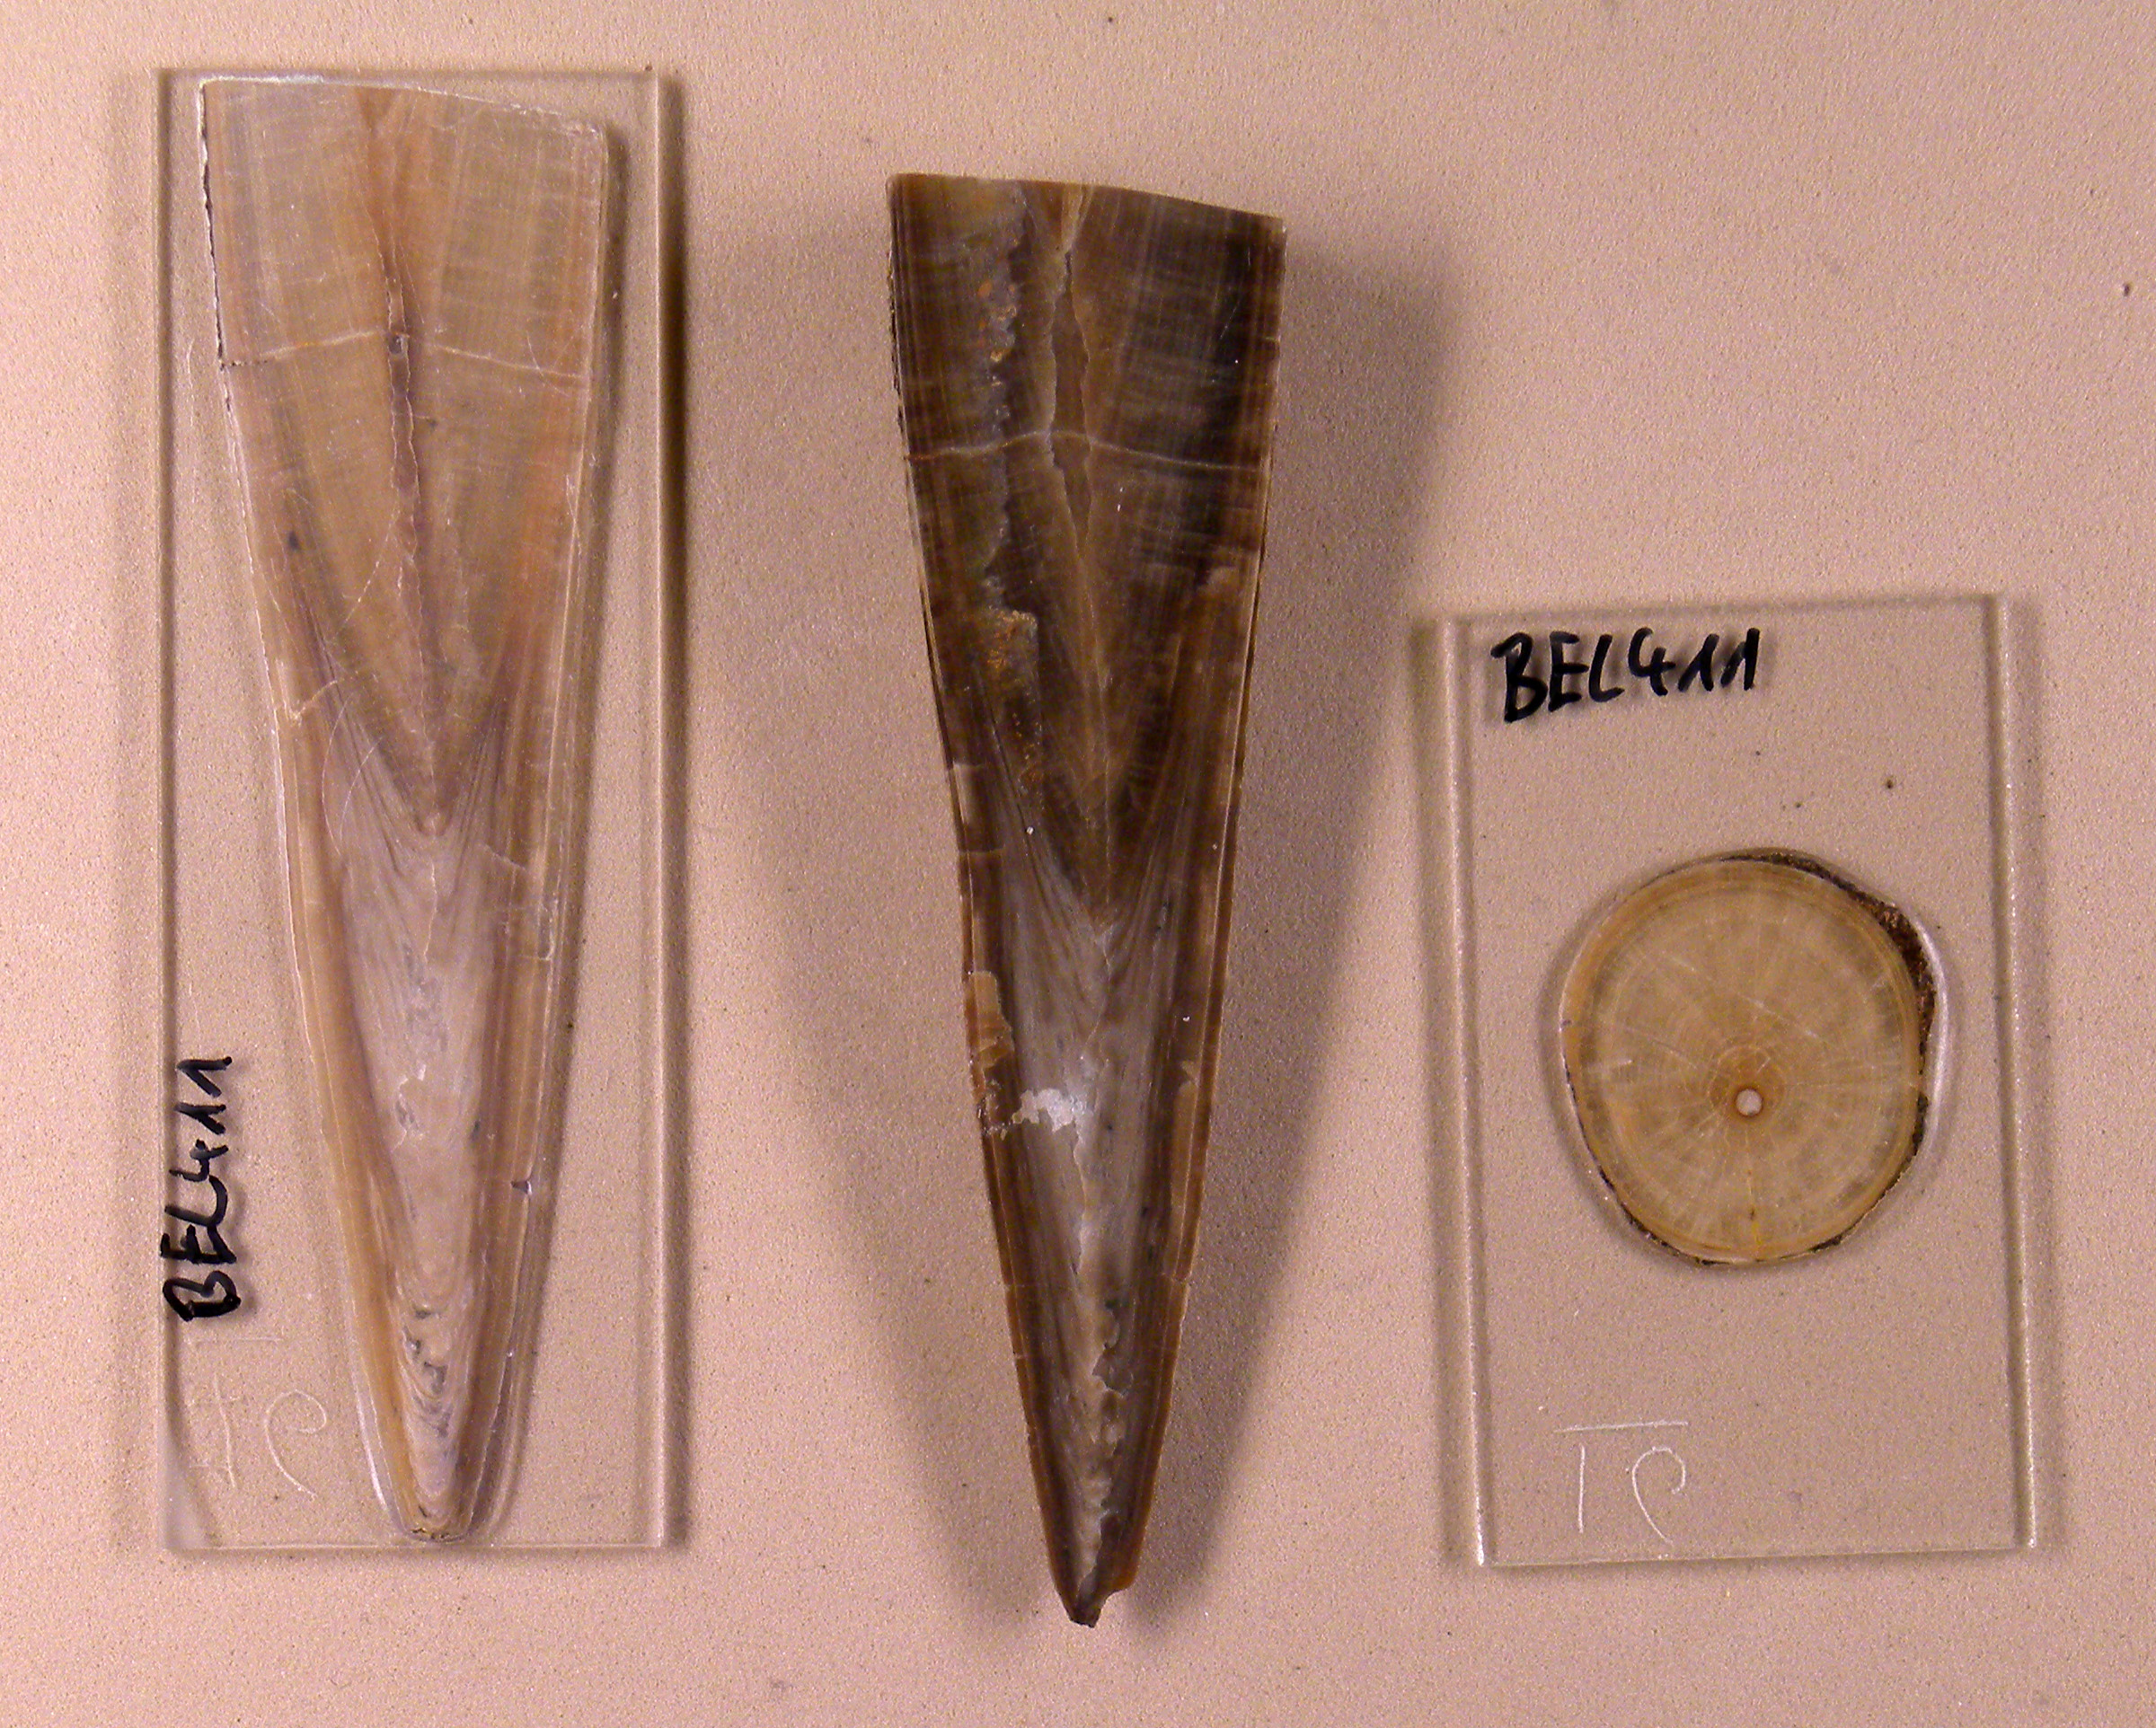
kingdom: Animalia
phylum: Mollusca
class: Cephalopoda
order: Belemnitida
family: Megateuthididae
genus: Megateuthis
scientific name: Megateuthis
